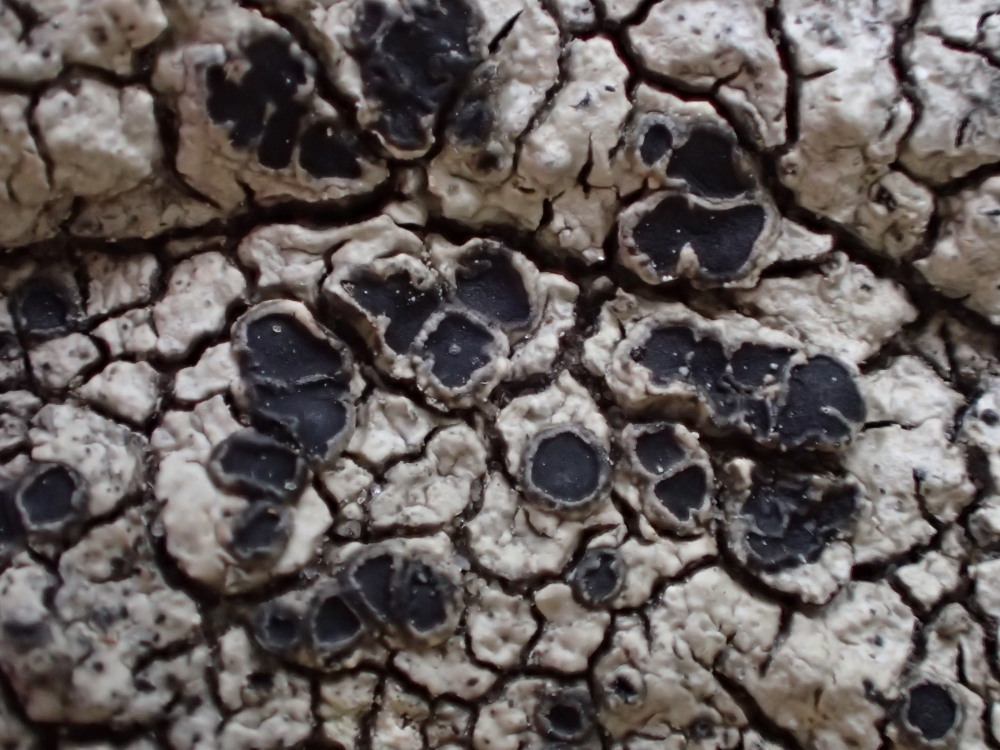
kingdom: Fungi
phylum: Ascomycota
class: Lecanoromycetes
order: Pertusariales
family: Megasporaceae
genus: Aspicilia
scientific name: Aspicilia cinerea
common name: grå hulskivelav
